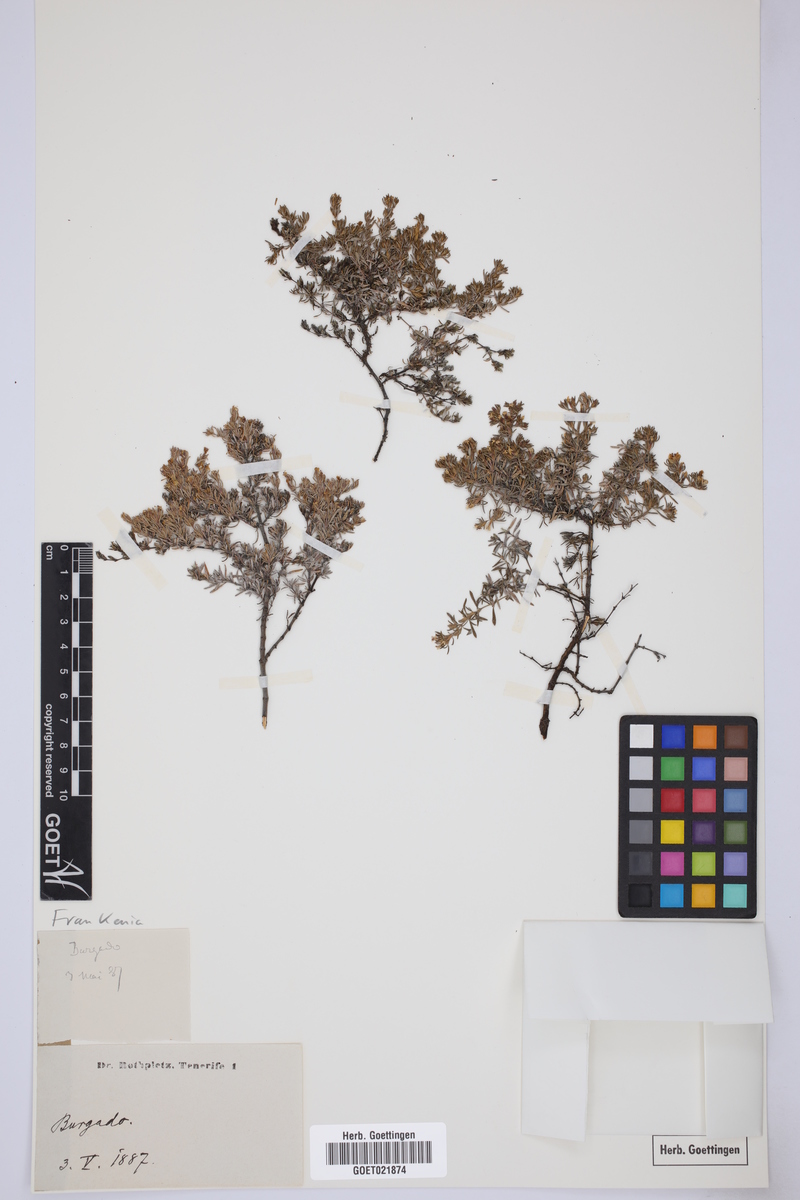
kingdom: Plantae
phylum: Tracheophyta
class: Magnoliopsida
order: Caryophyllales
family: Frankeniaceae
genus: Frankenia
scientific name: Frankenia
